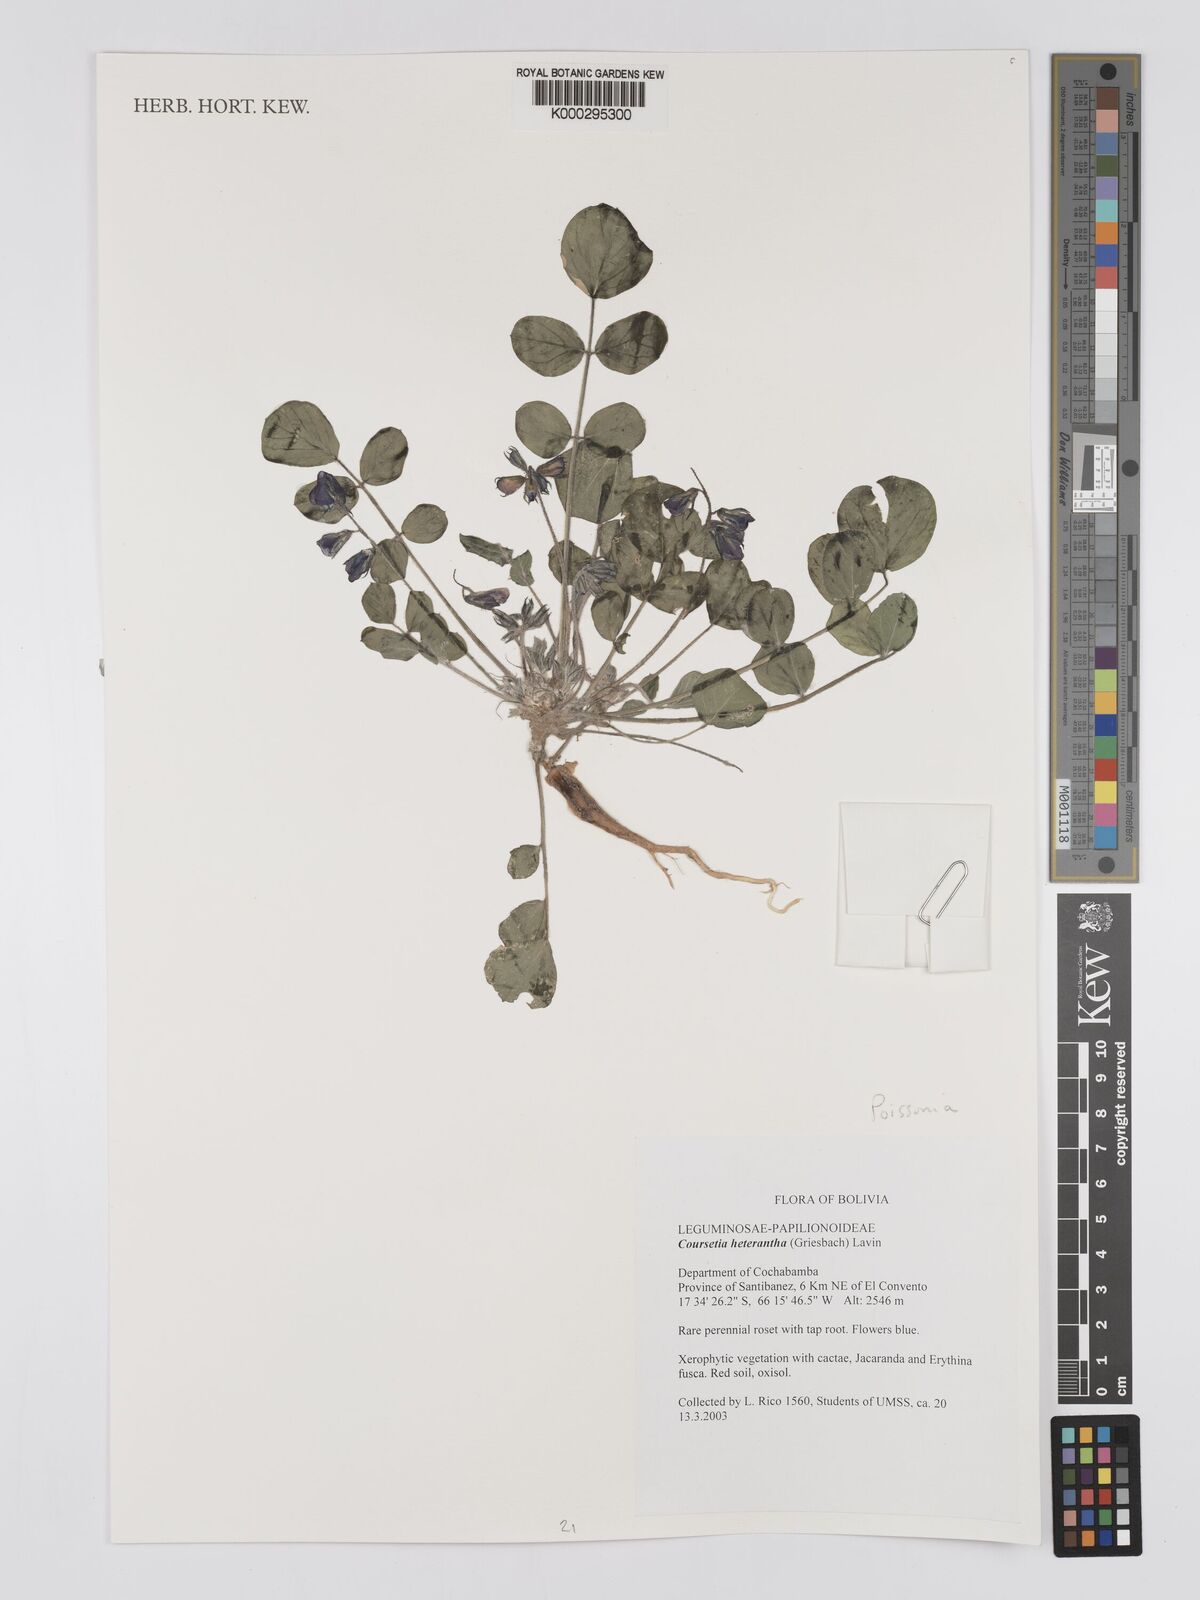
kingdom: Plantae
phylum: Tracheophyta
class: Magnoliopsida
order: Fabales
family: Fabaceae
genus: Poissonia
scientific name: Poissonia heterantha
